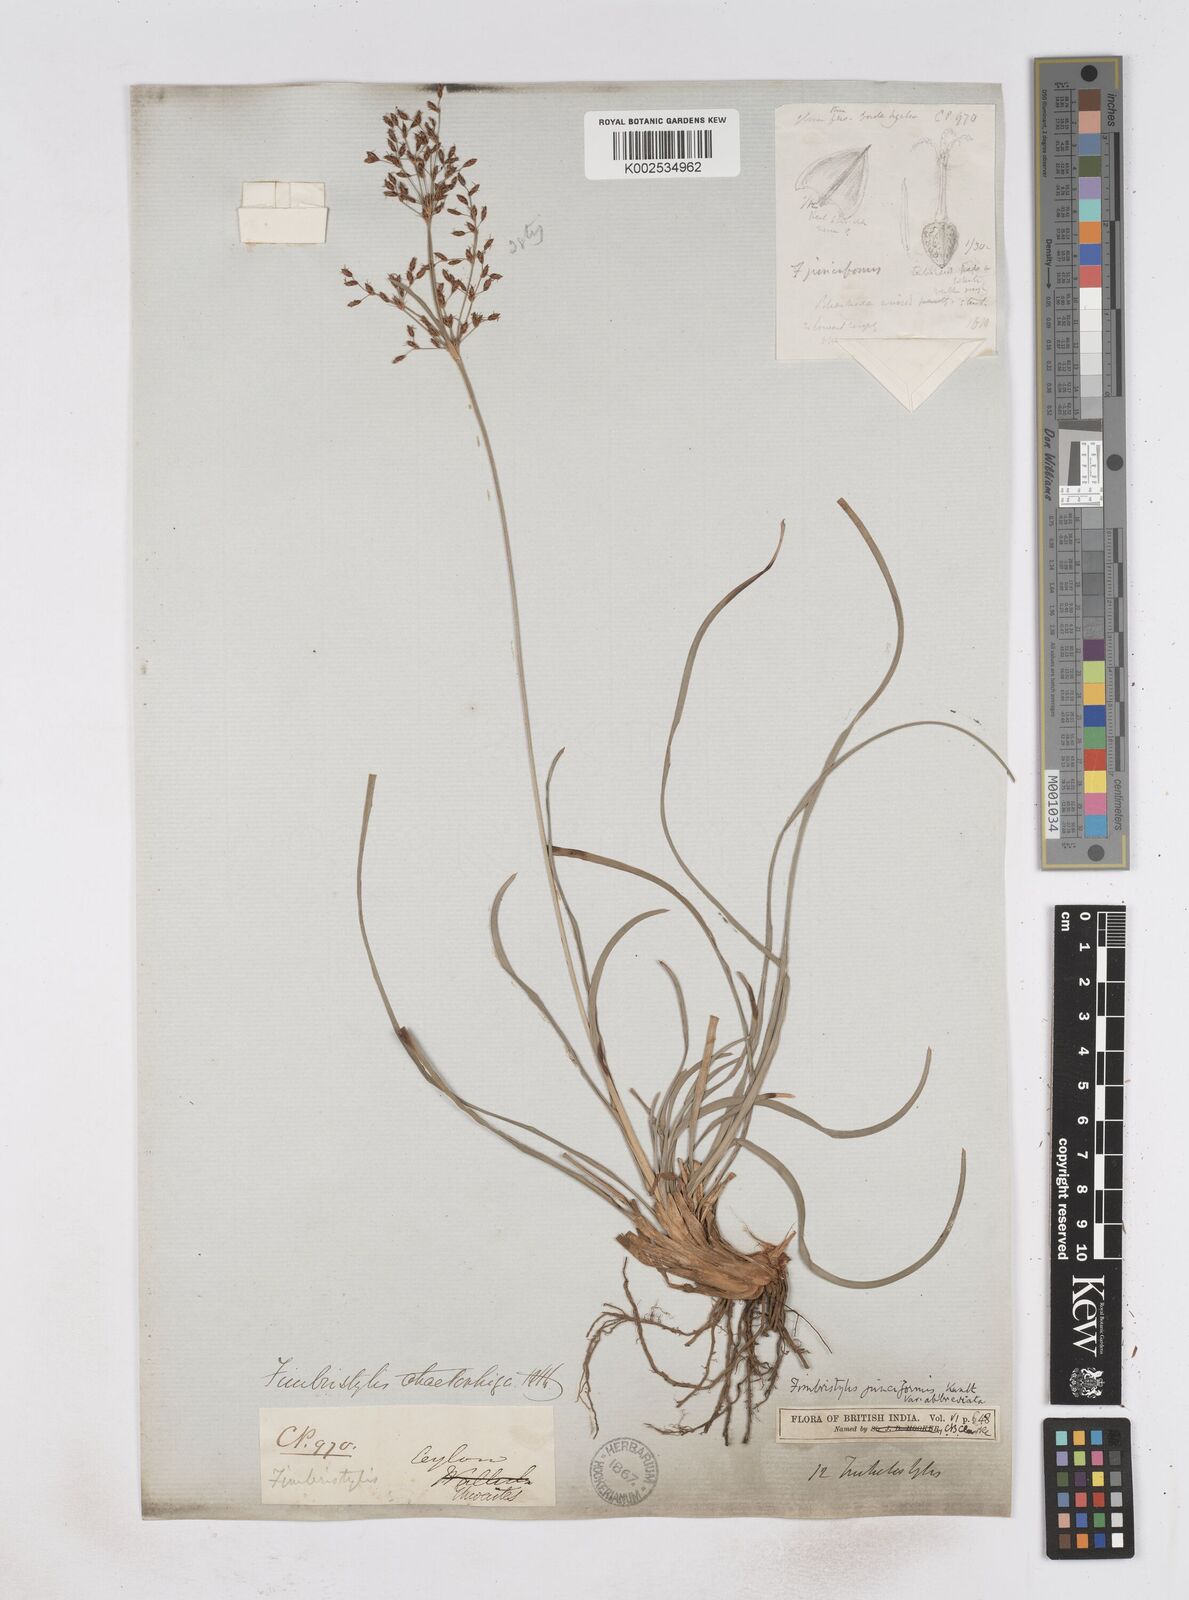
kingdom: Plantae
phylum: Tracheophyta
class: Liliopsida
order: Poales
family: Cyperaceae
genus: Fimbristylis
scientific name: Fimbristylis falcata
